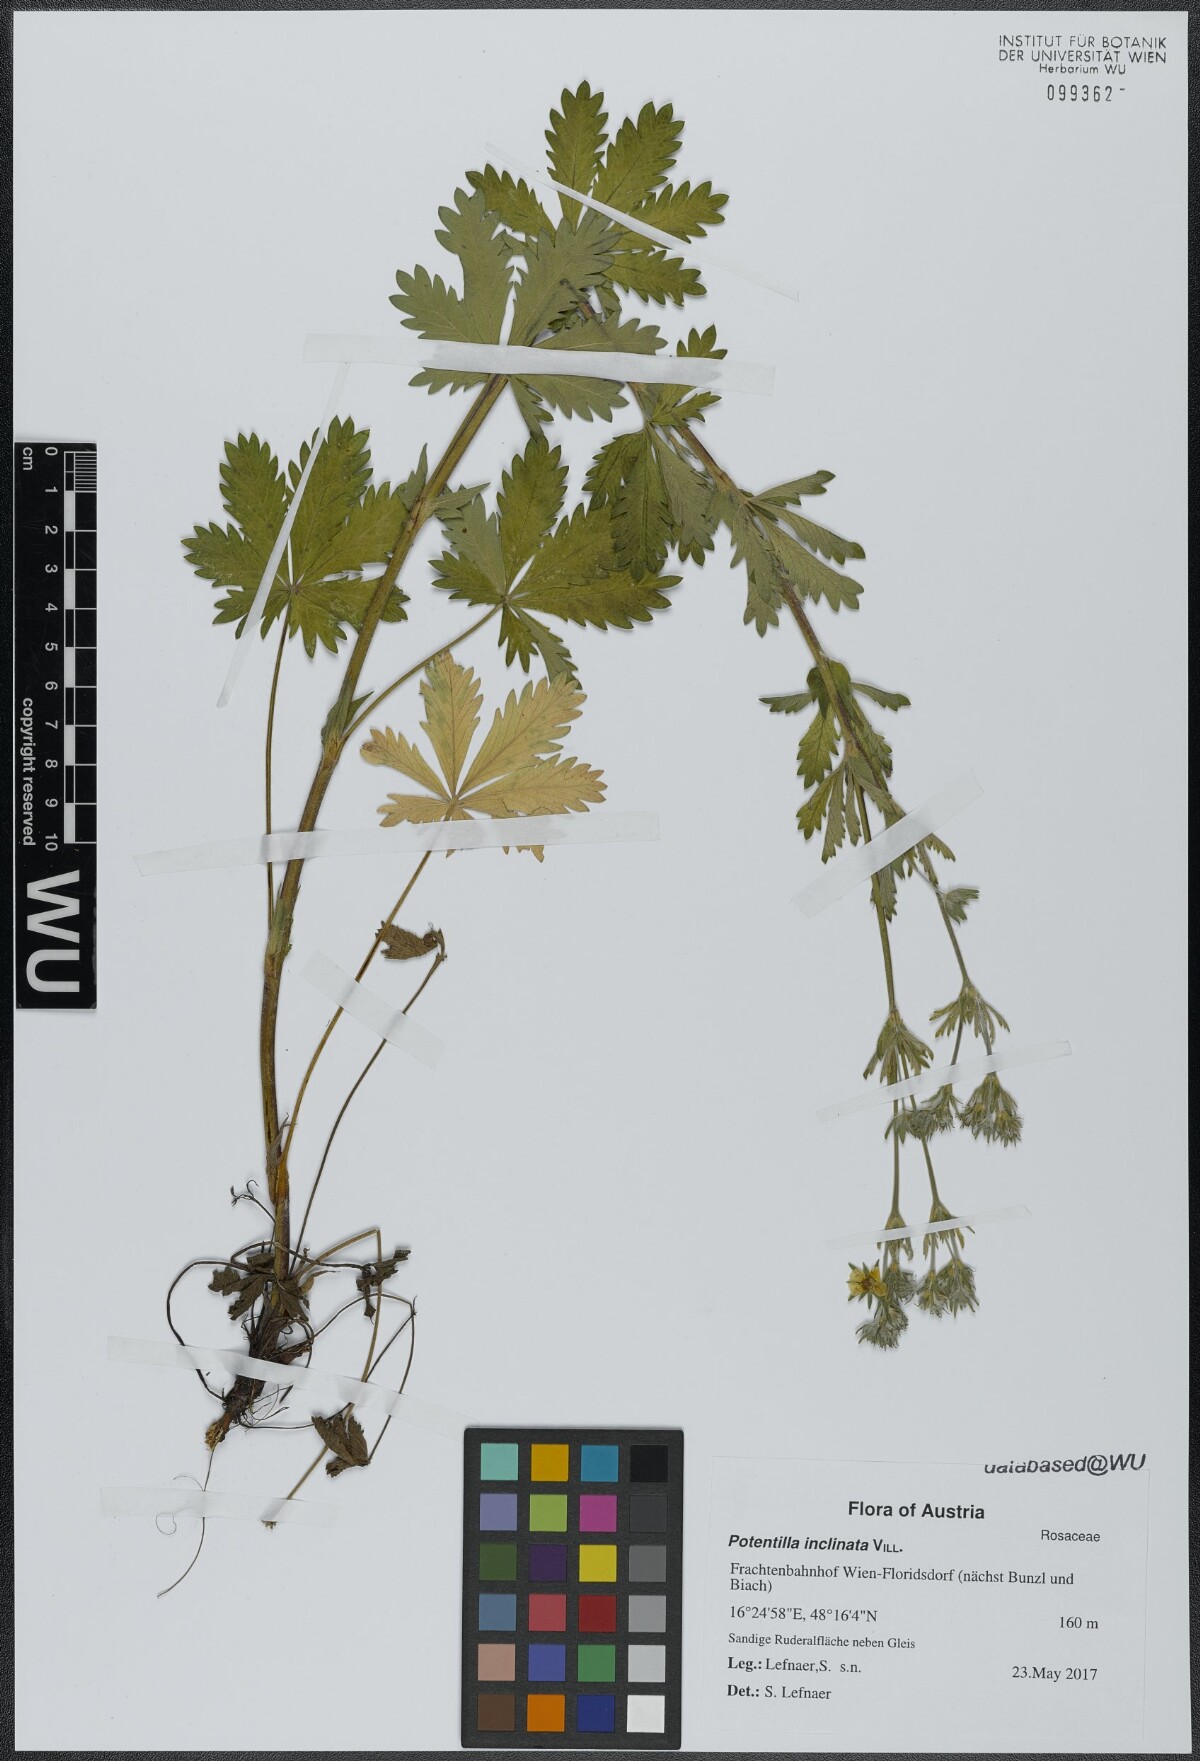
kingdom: Plantae
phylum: Tracheophyta
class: Magnoliopsida
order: Rosales
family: Rosaceae
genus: Potentilla
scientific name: Potentilla inclinata
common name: Grey cinquefoil
